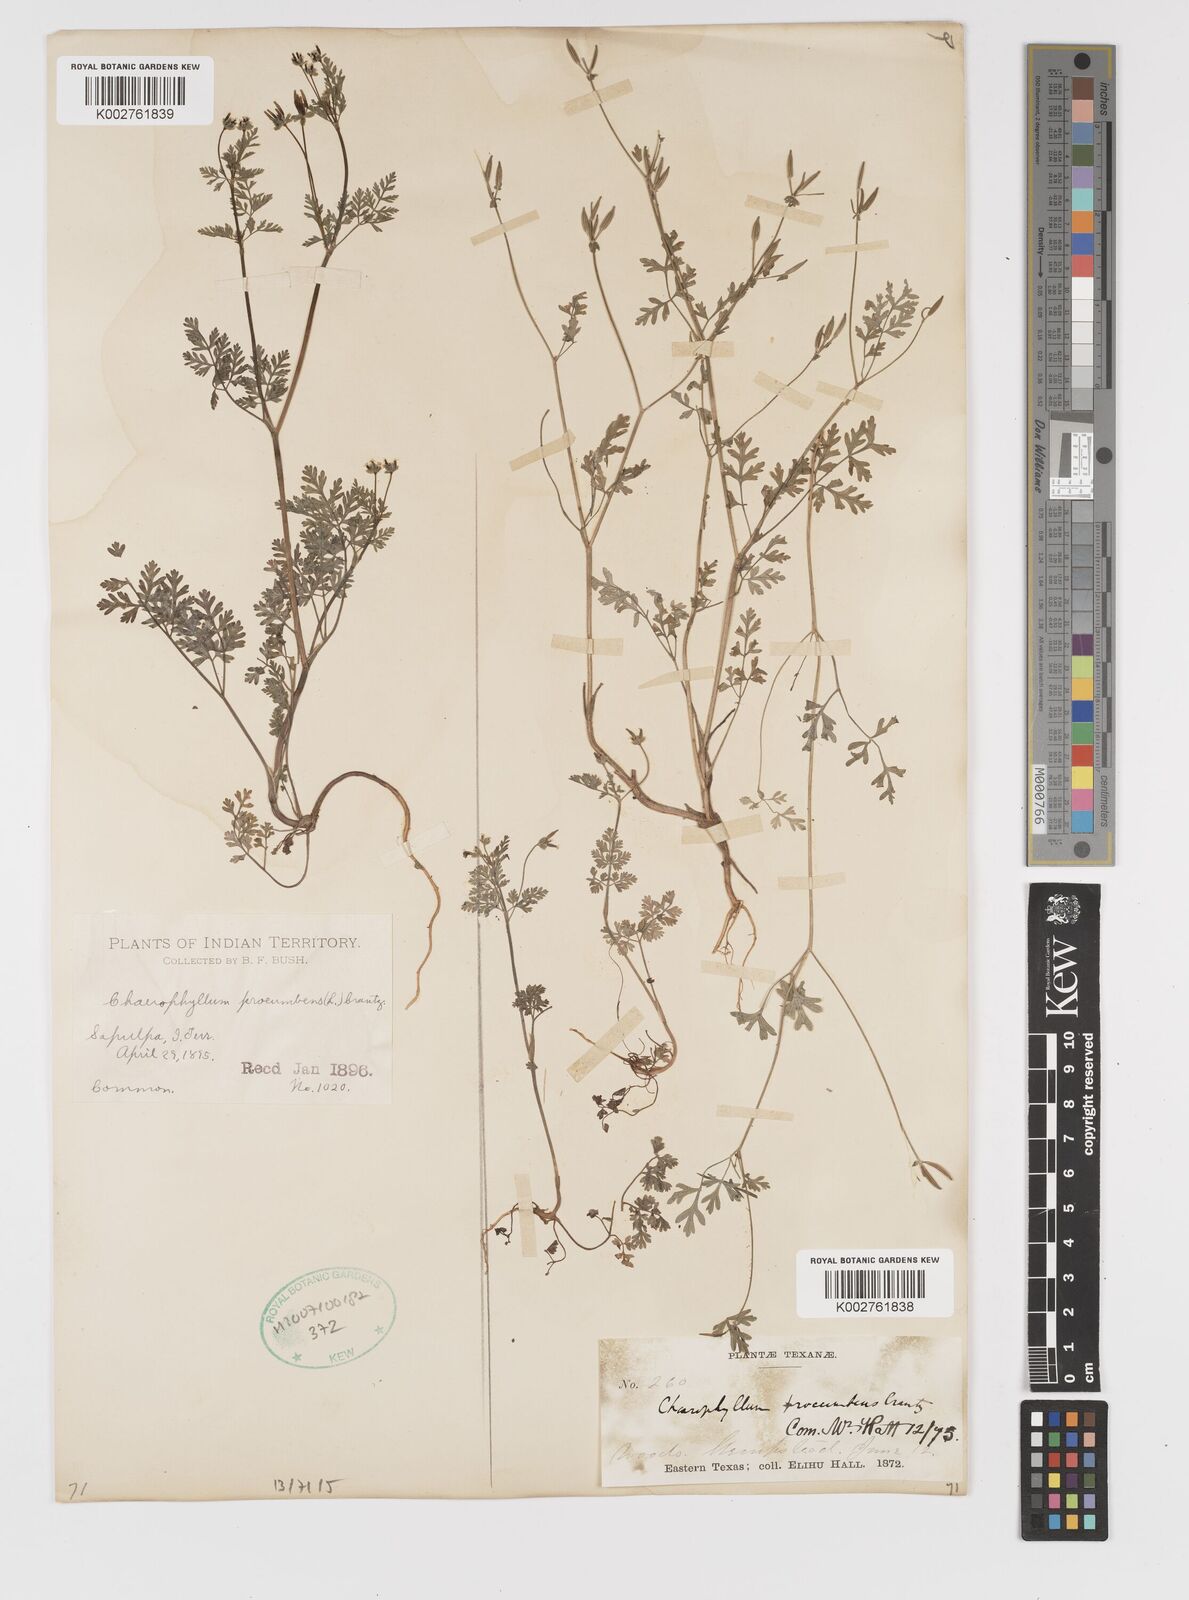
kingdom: Plantae
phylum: Tracheophyta
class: Magnoliopsida
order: Apiales
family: Apiaceae
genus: Chaerophyllum
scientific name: Chaerophyllum procumbens
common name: Spreading chervil
